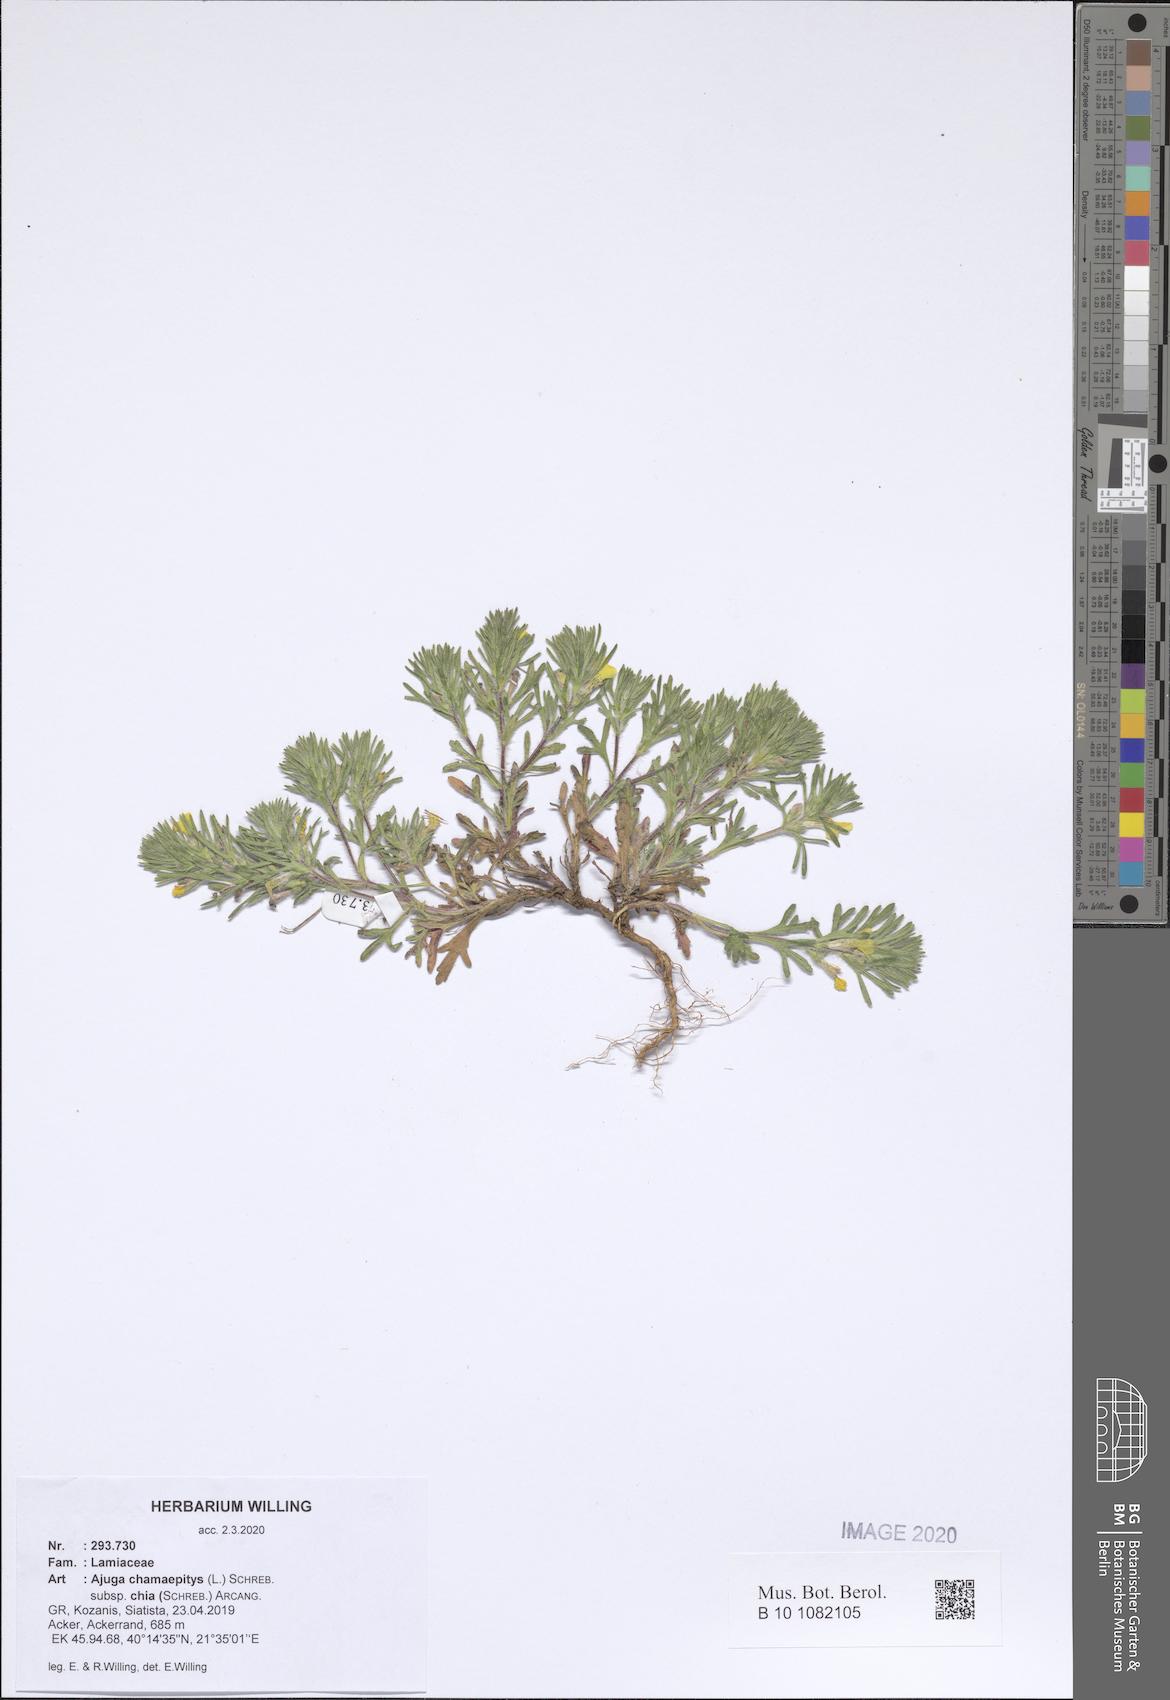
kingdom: Plantae
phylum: Tracheophyta
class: Magnoliopsida
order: Lamiales
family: Lamiaceae
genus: Ajuga
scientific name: Ajuga chamaepitys
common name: Ground-pine
